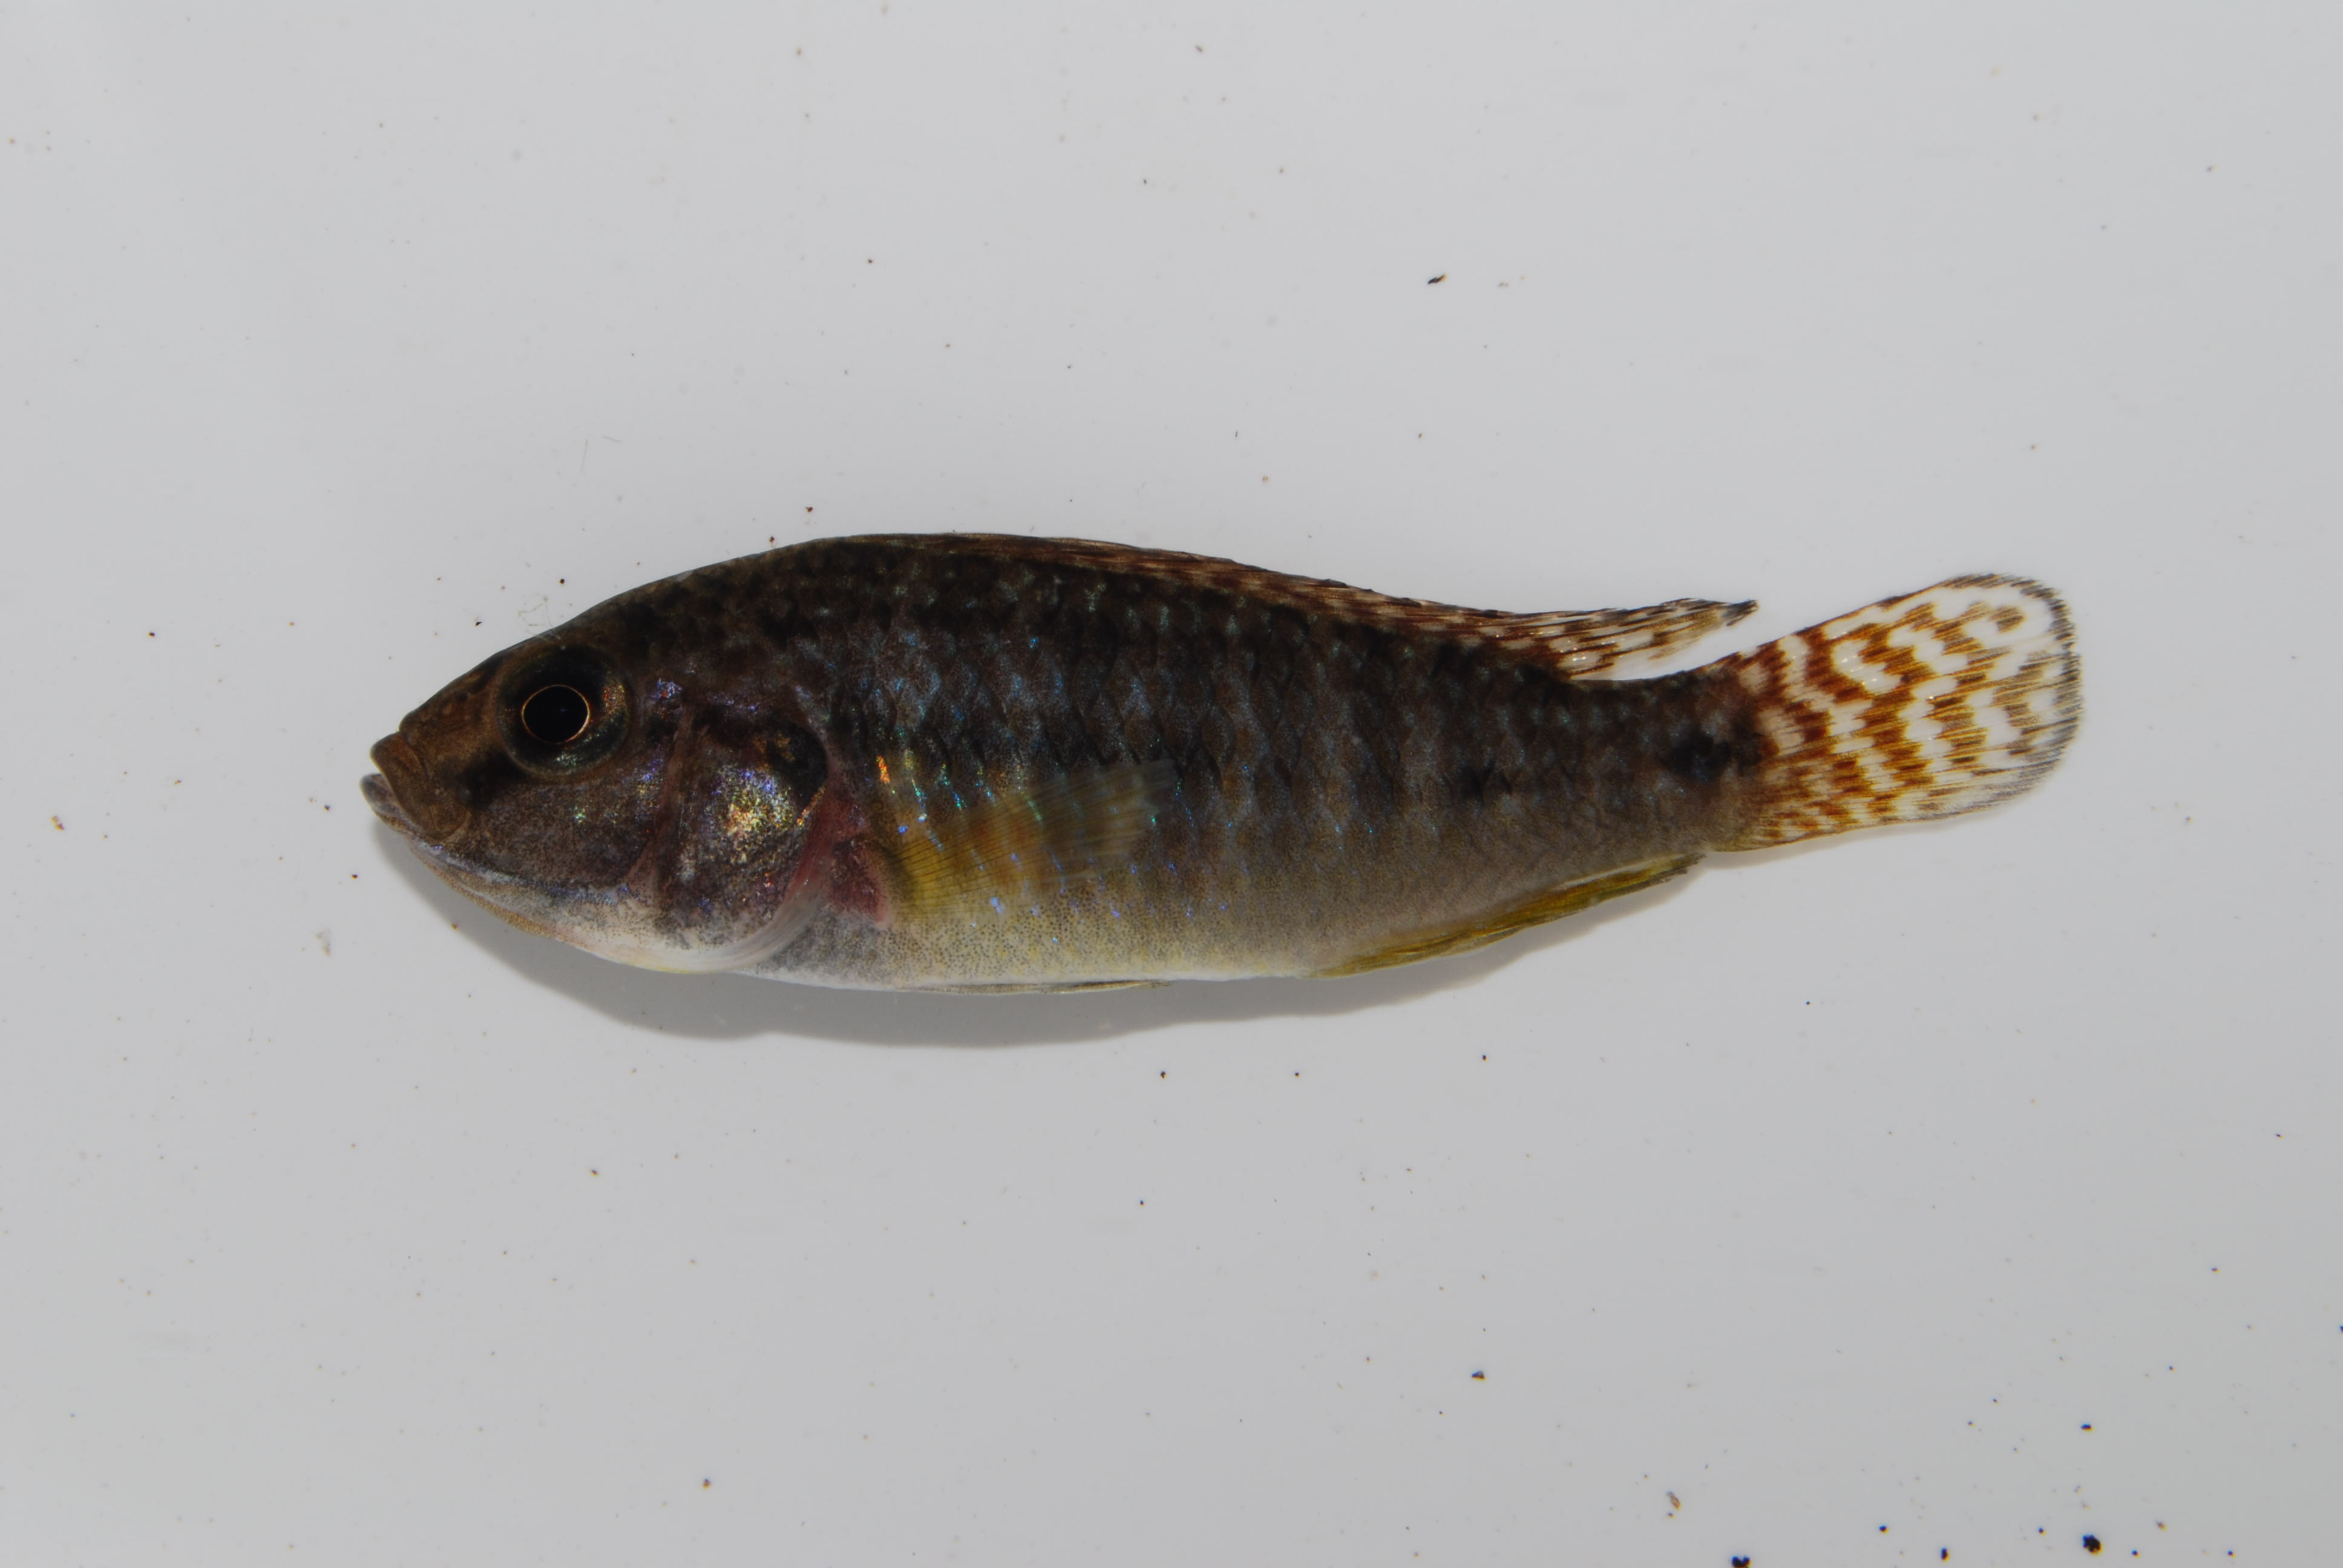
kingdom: Animalia
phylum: Chordata
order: Perciformes
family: Cichlidae
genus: Pseudocrenilabrus
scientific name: Pseudocrenilabrus philander
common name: Southern mouthbrooder
